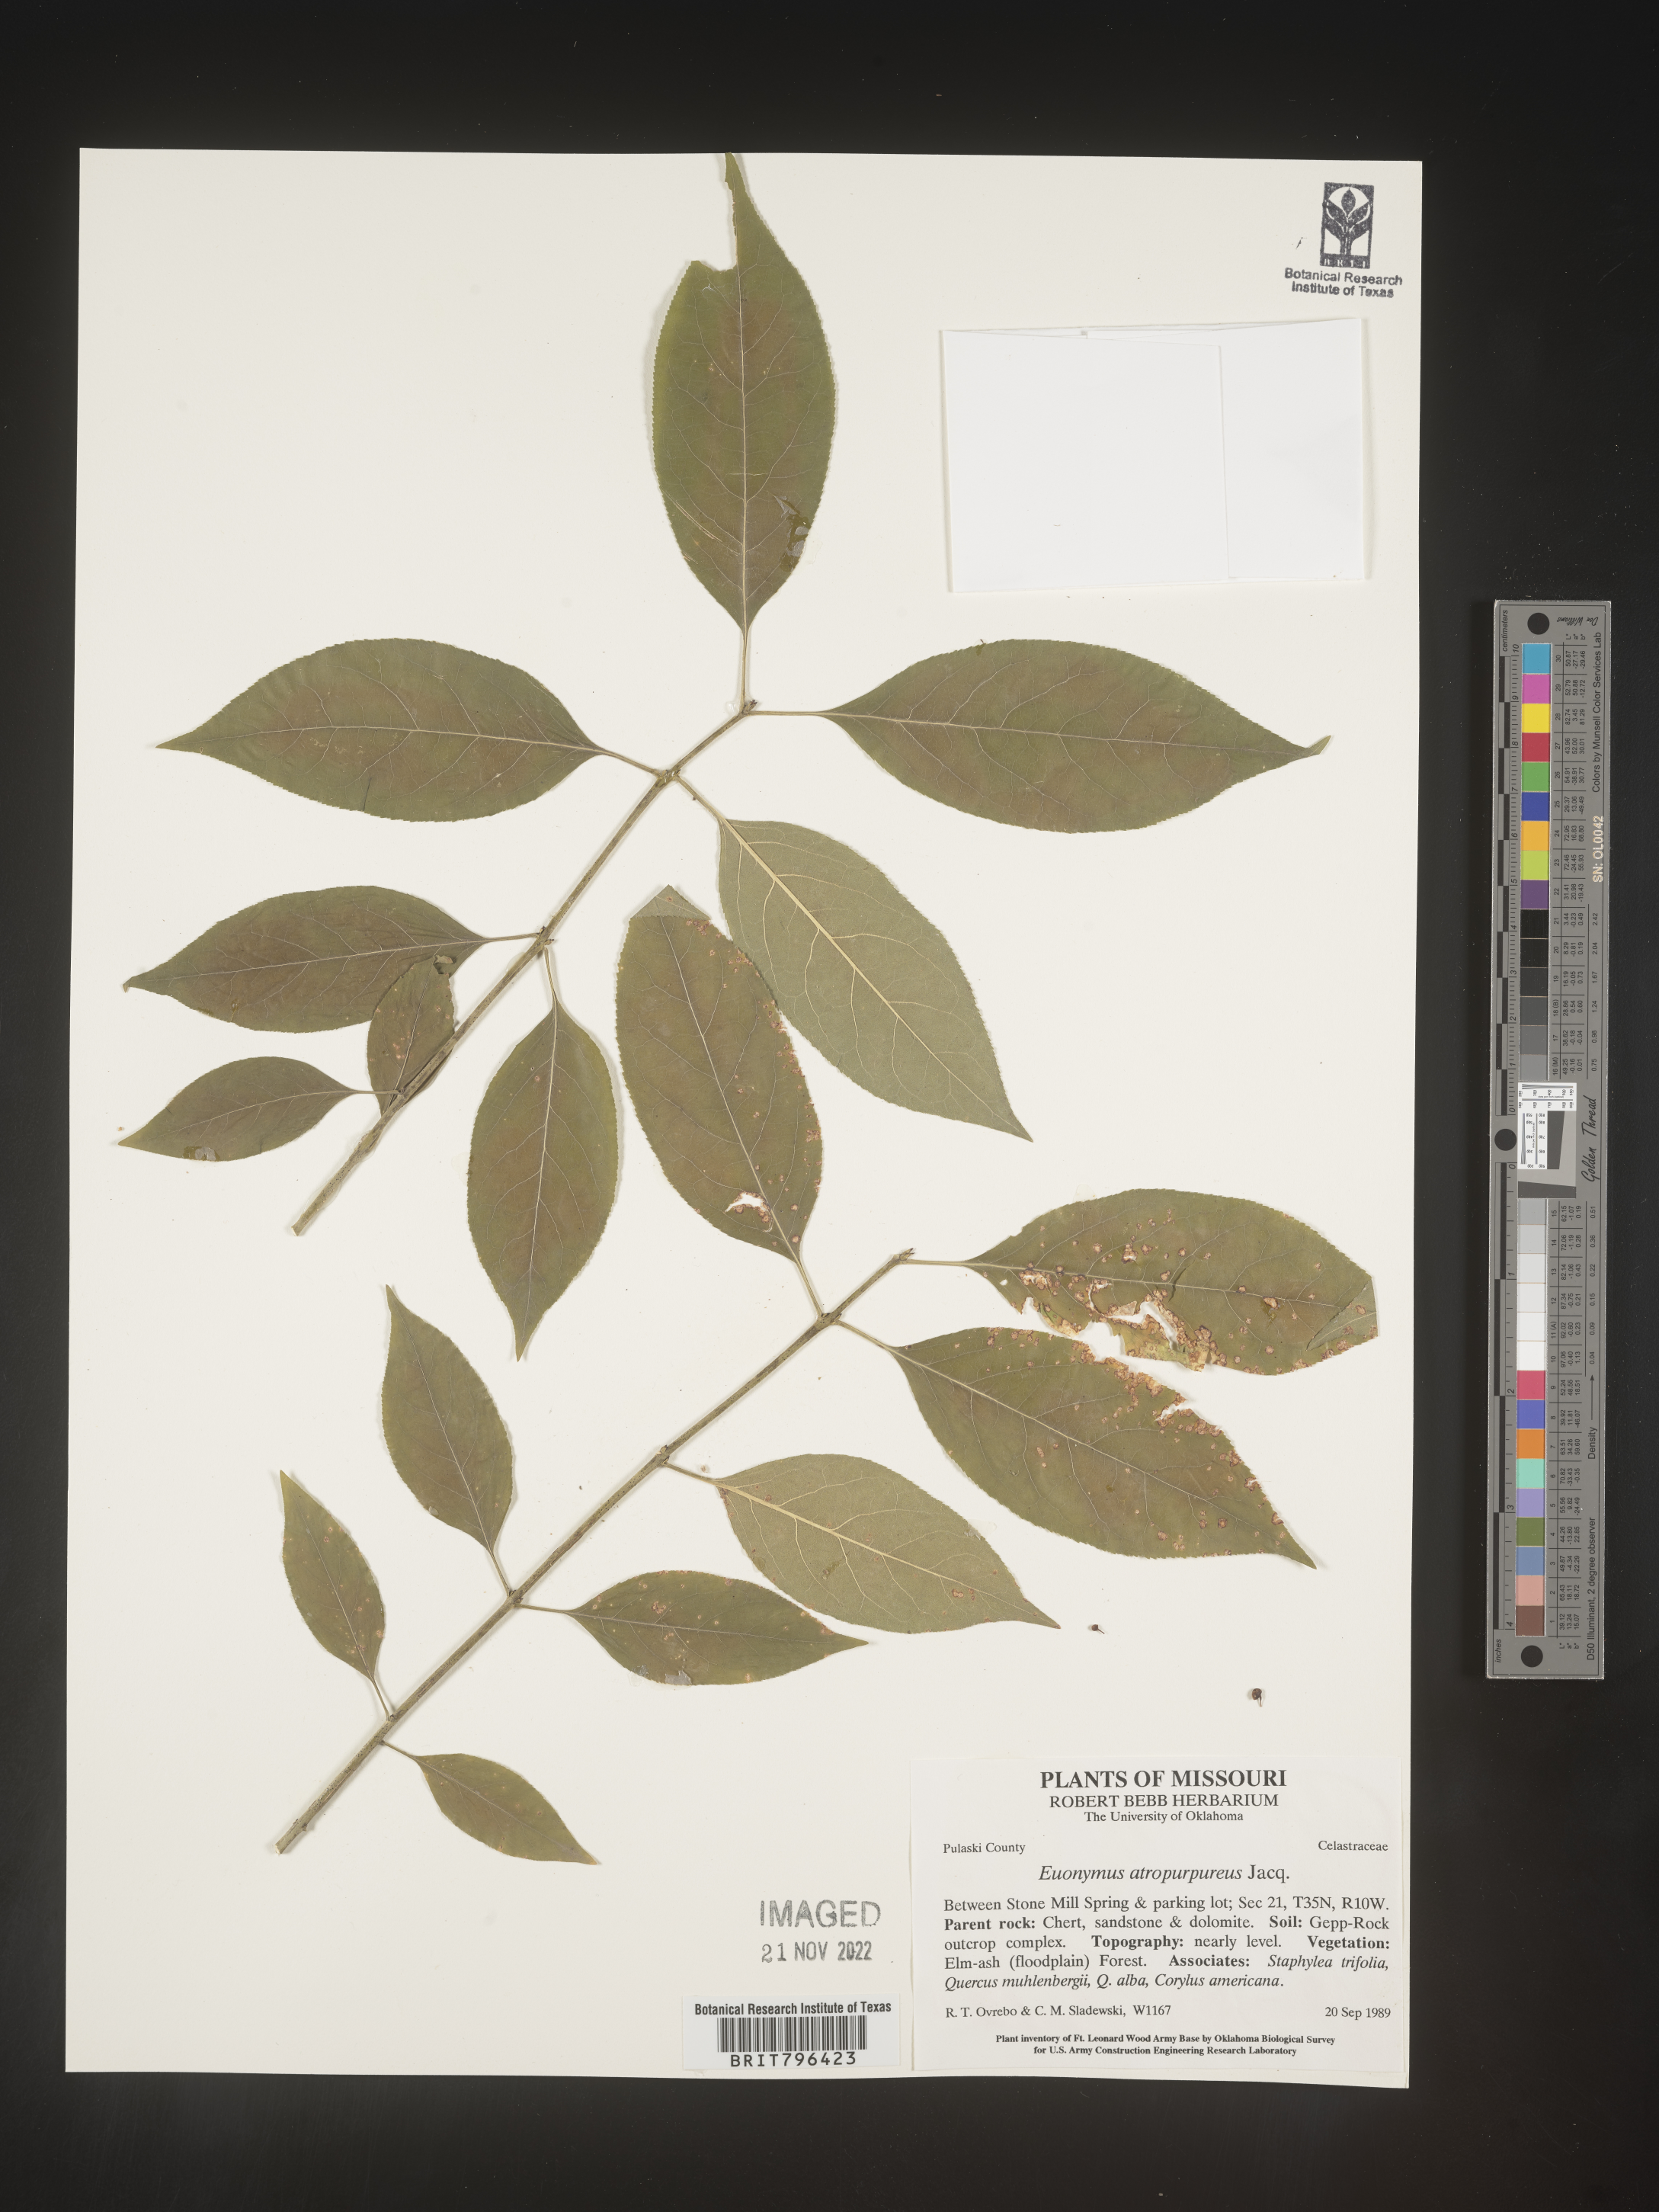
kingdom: Plantae
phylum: Tracheophyta
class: Magnoliopsida
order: Celastrales
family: Celastraceae
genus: Euonymus
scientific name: Euonymus atropurpureus
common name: Eastern wahoo
